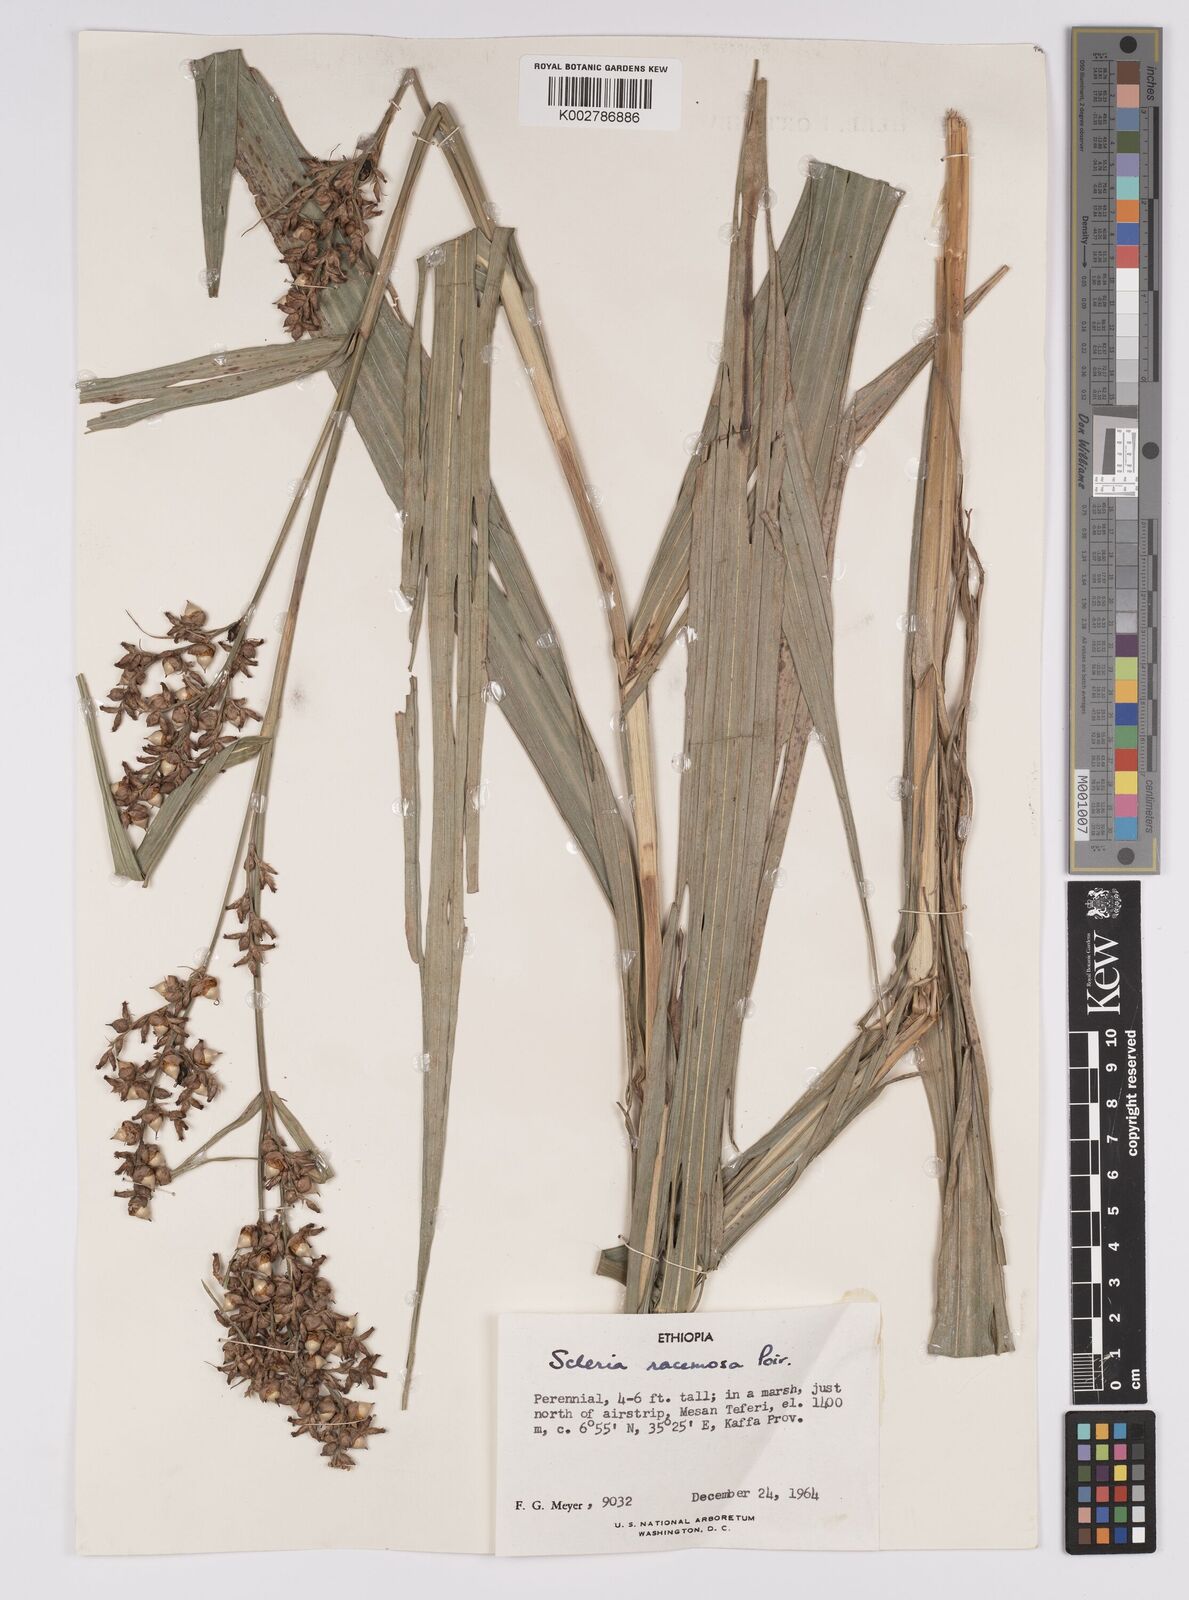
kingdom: Plantae
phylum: Tracheophyta
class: Liliopsida
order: Poales
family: Cyperaceae
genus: Scleria
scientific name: Scleria racemosa
